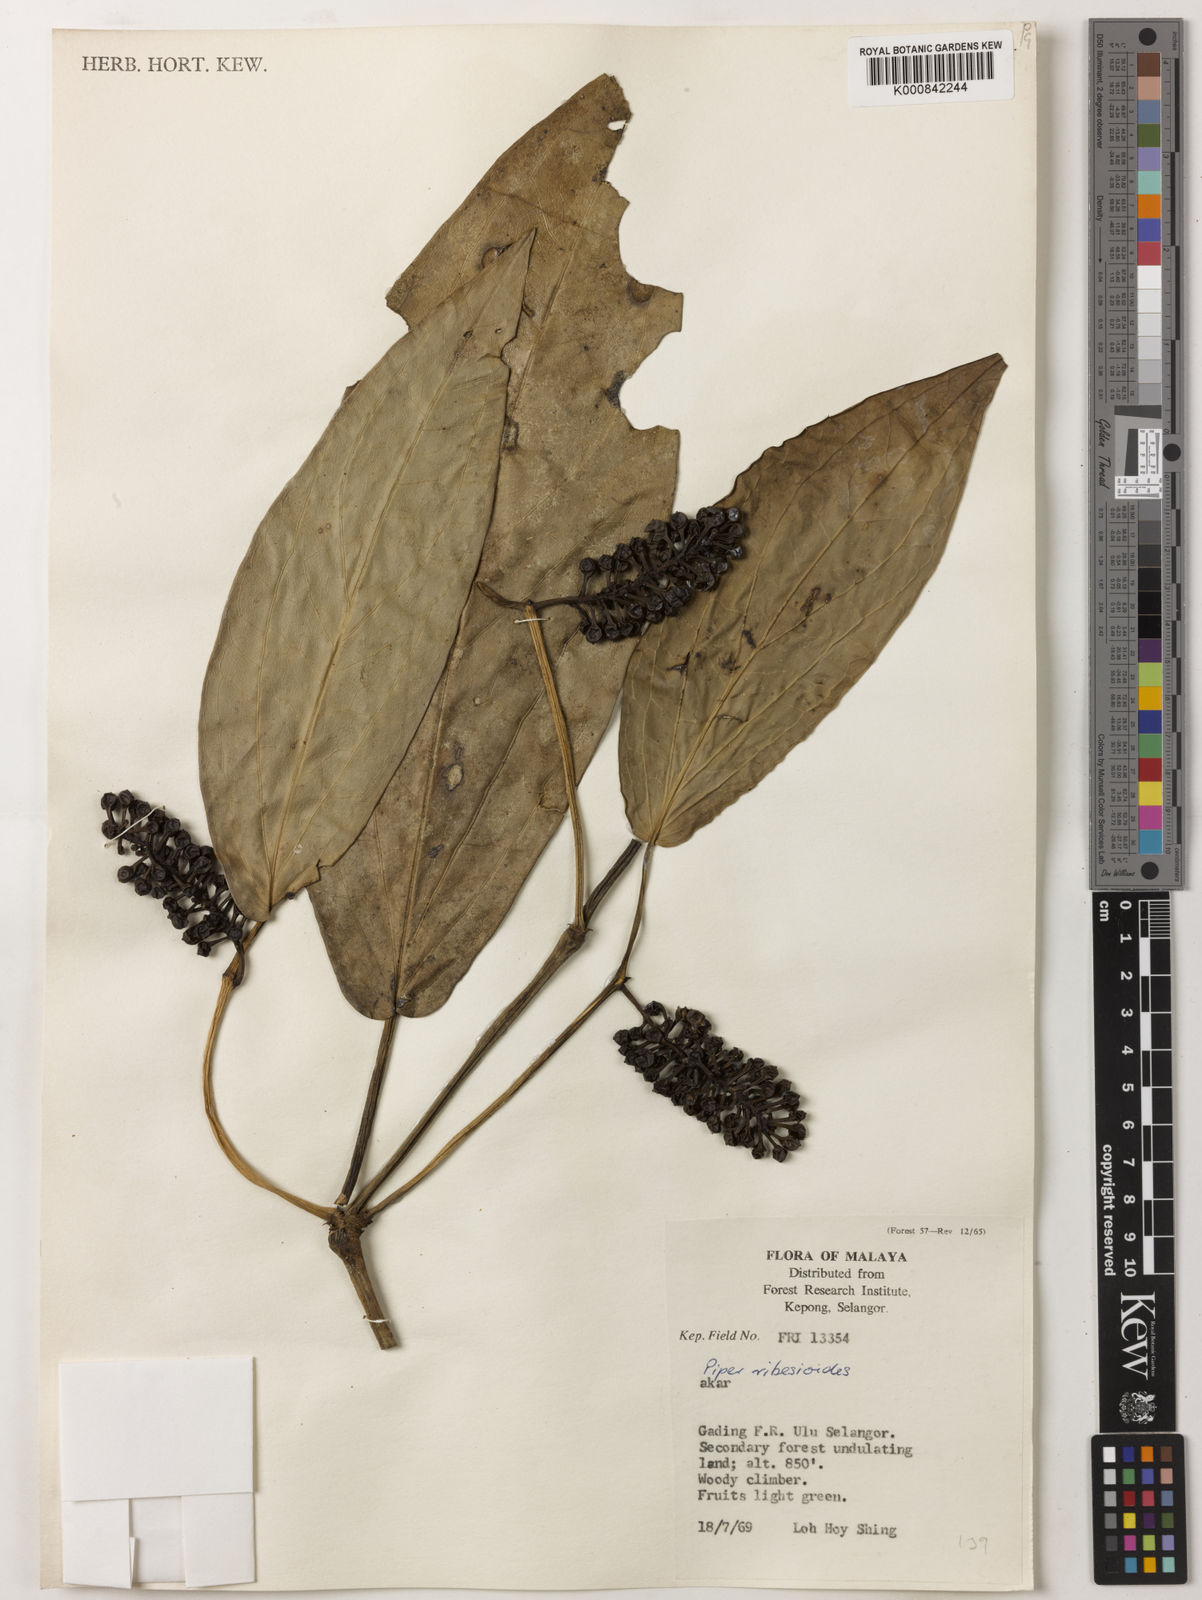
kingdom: Plantae
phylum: Tracheophyta
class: Magnoliopsida
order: Piperales
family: Piperaceae
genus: Piper
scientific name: Piper ribesioides
